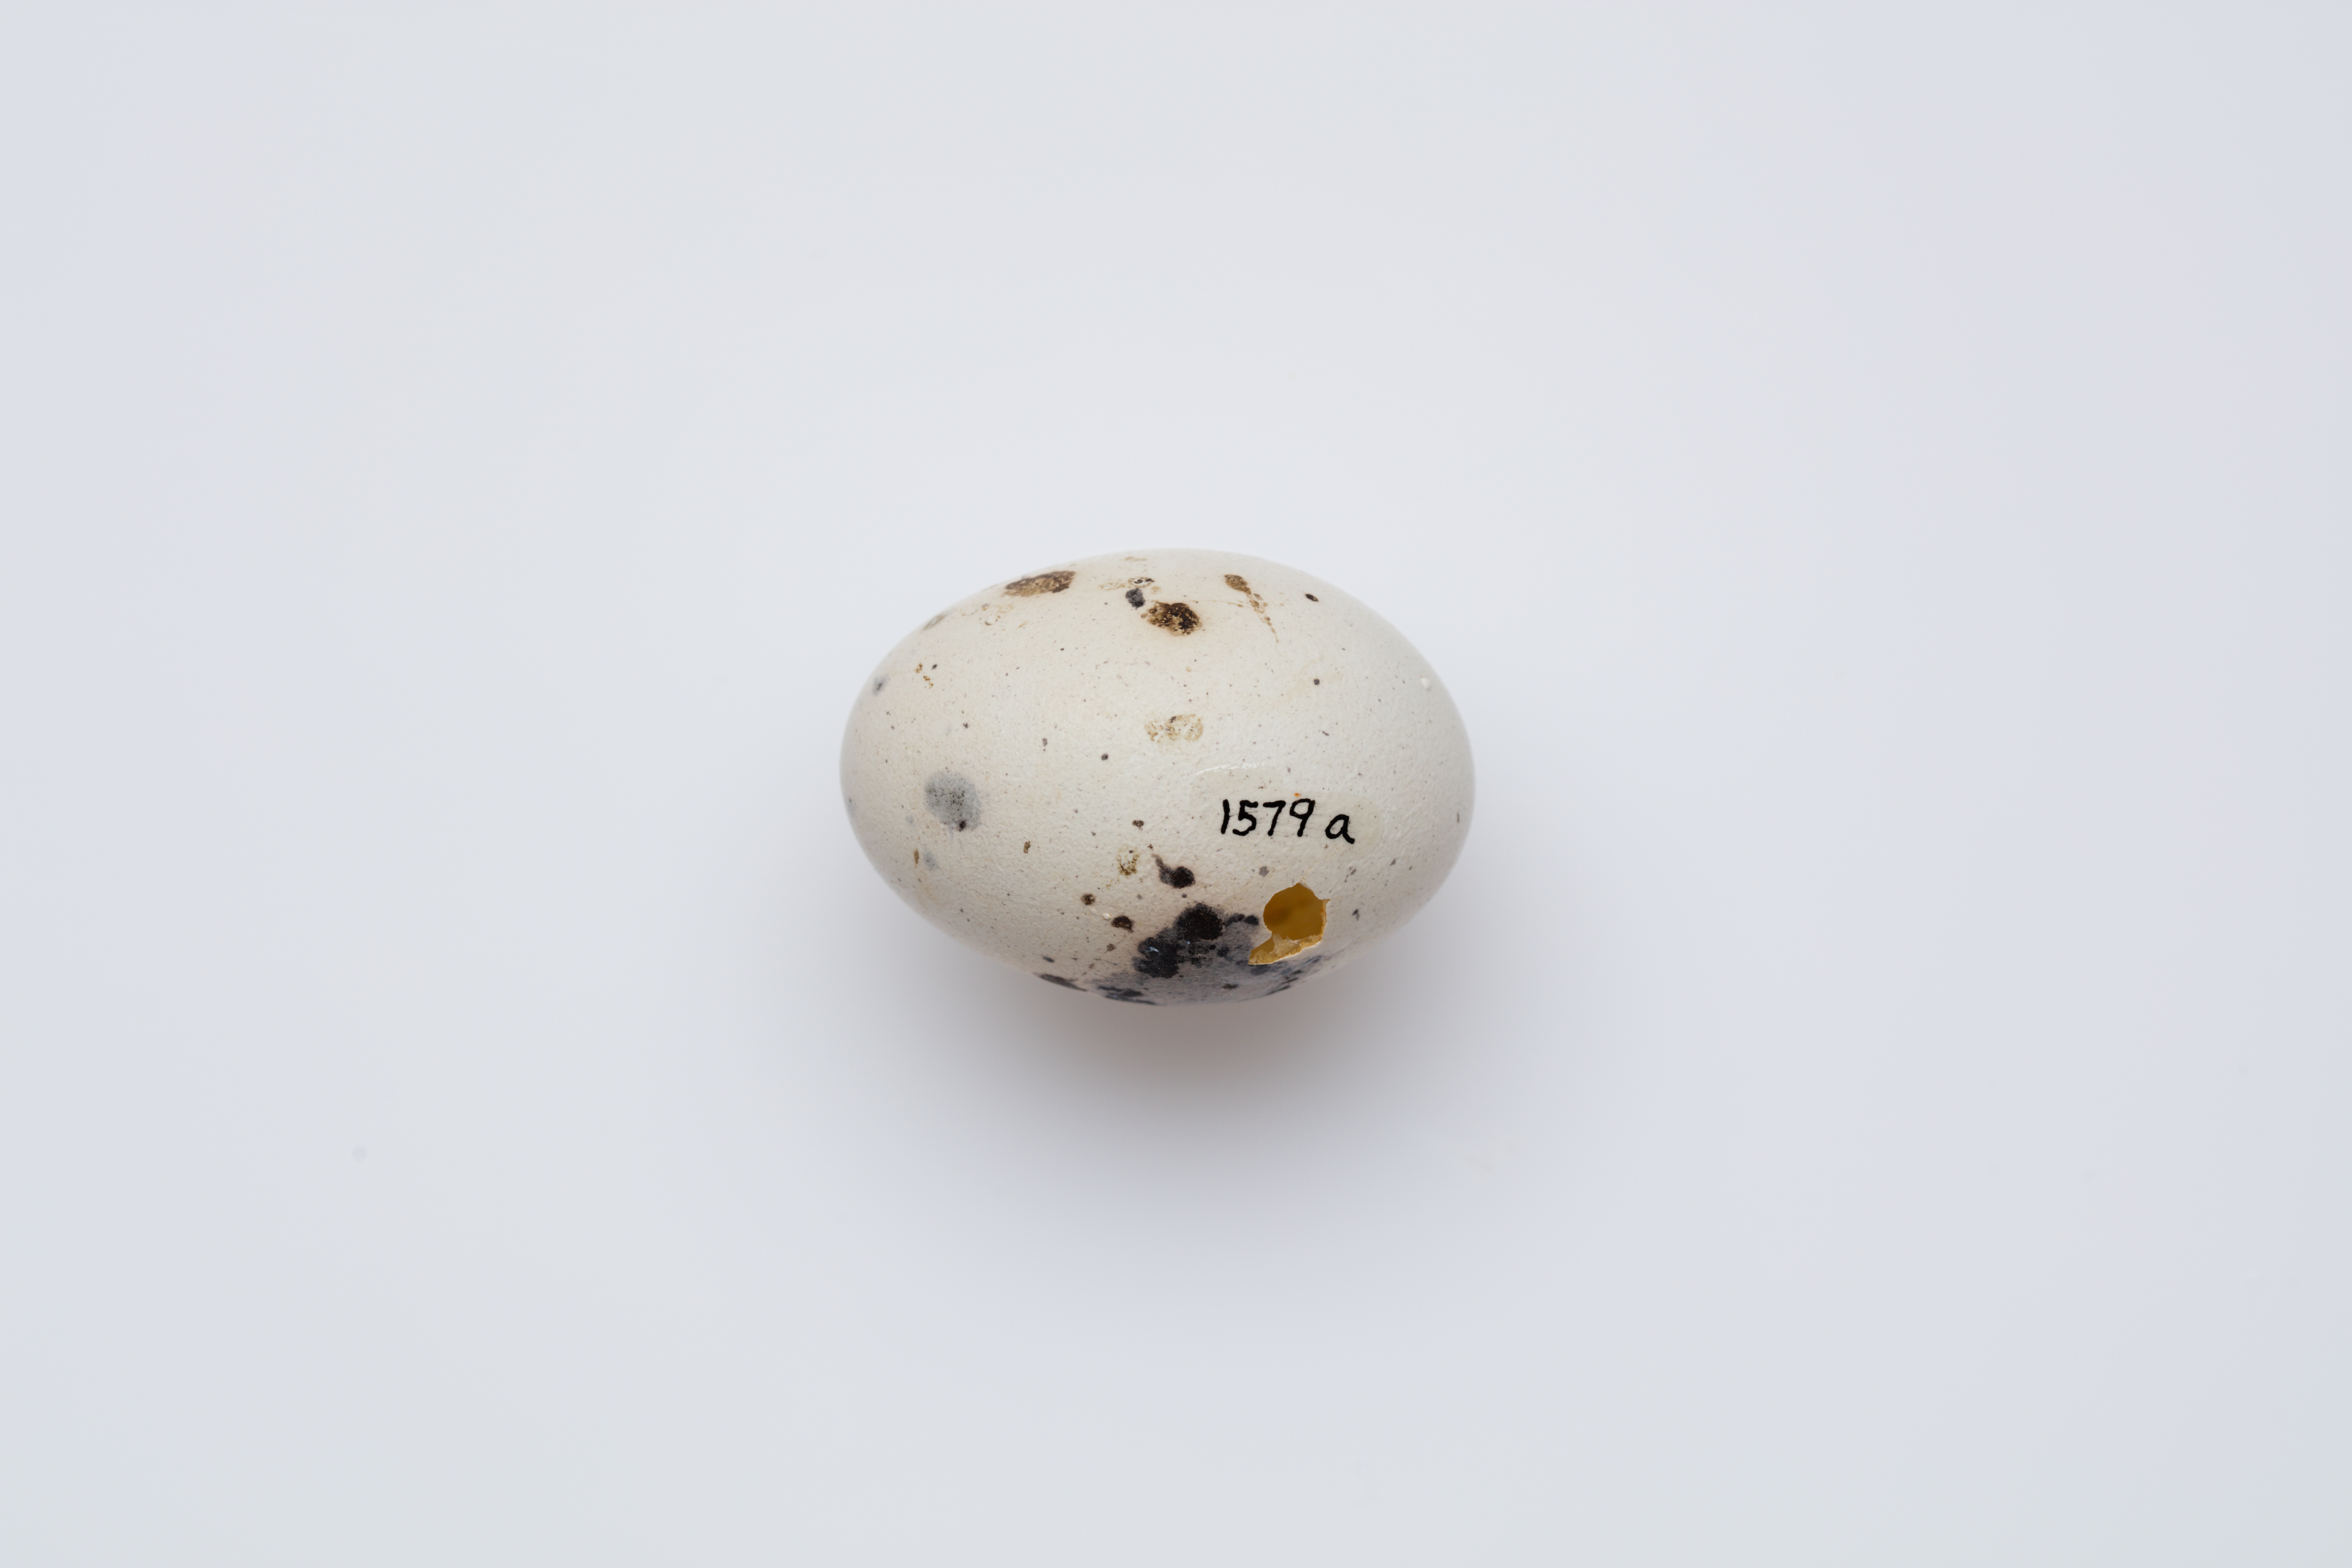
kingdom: Animalia
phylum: Chordata
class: Aves
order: Passeriformes
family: Callaeatidae
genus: Callaeas
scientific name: Callaeas cinereus
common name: South island kokako
